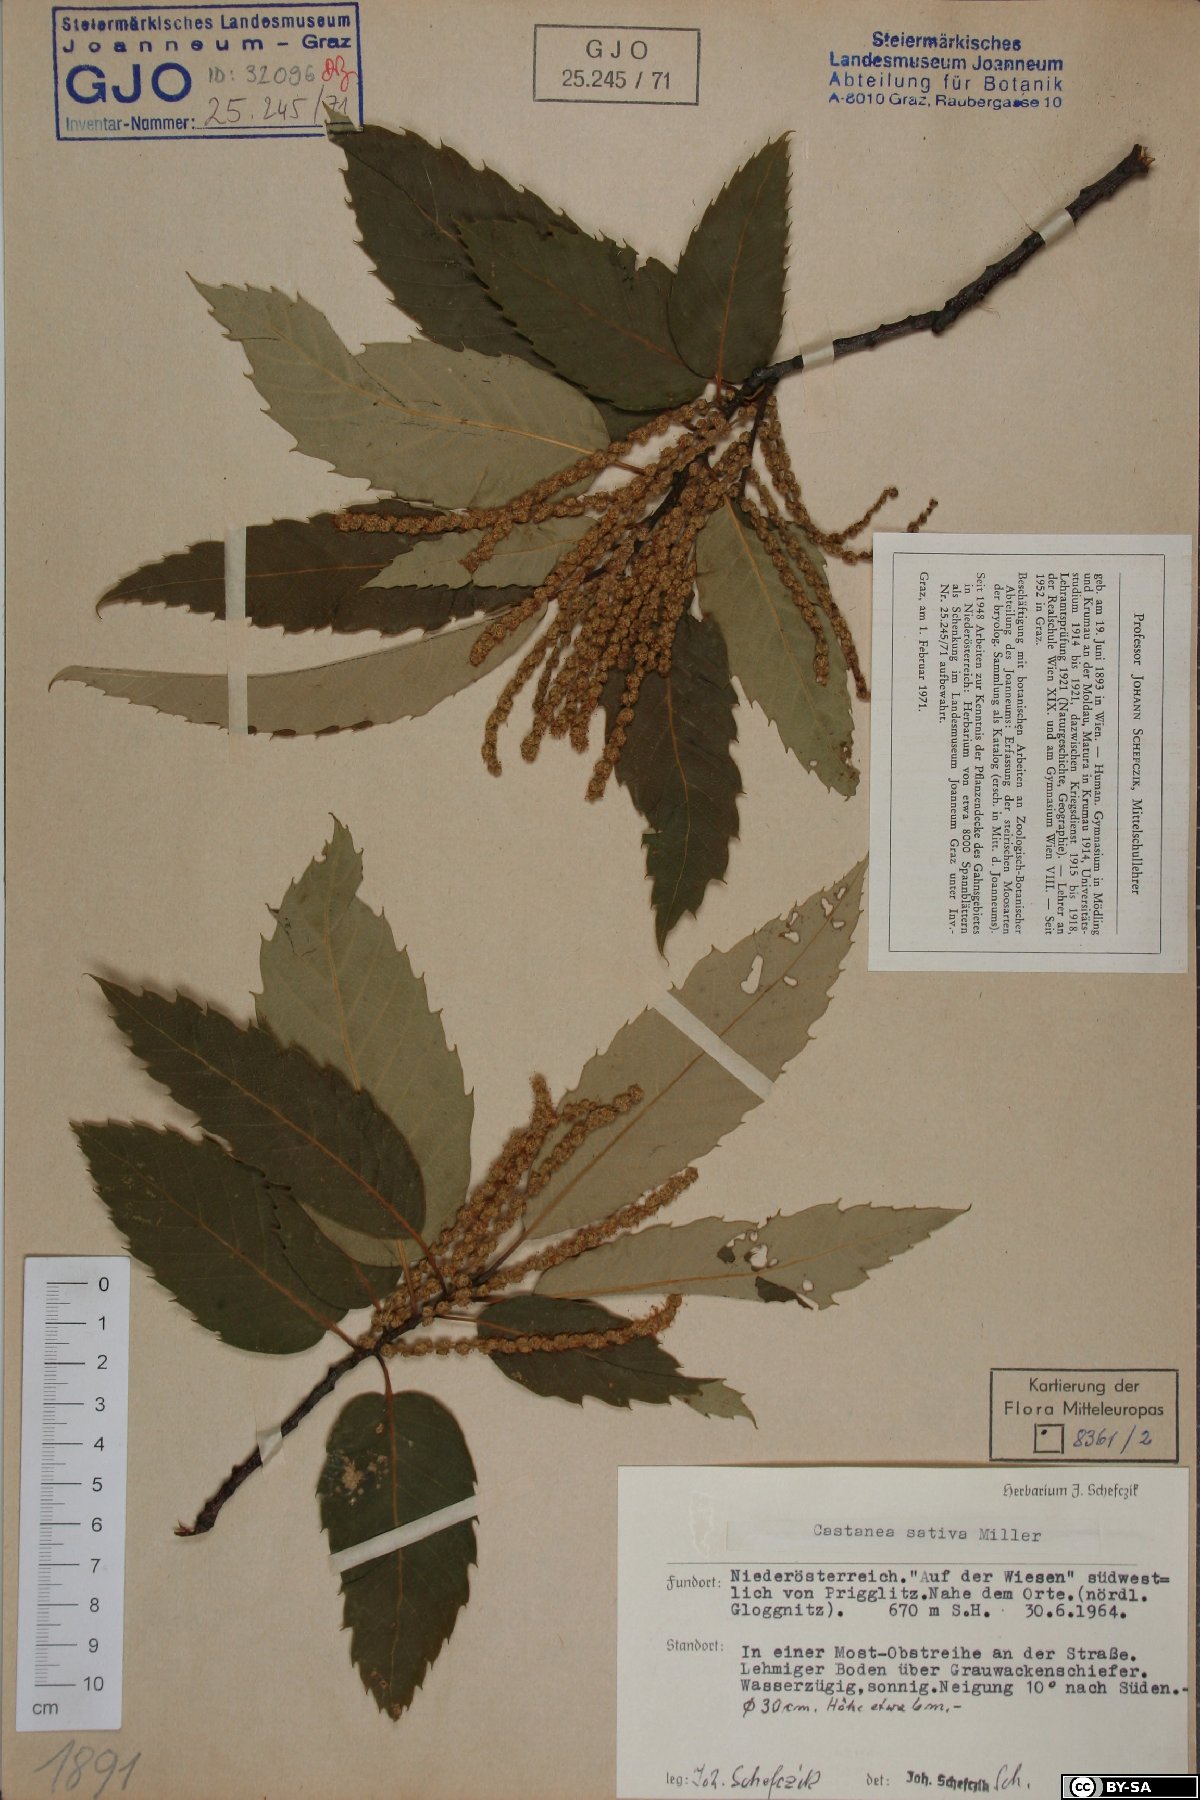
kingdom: Plantae
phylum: Tracheophyta
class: Magnoliopsida
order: Fagales
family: Fagaceae
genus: Castanea
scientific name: Castanea sativa
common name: Sweet chestnut
